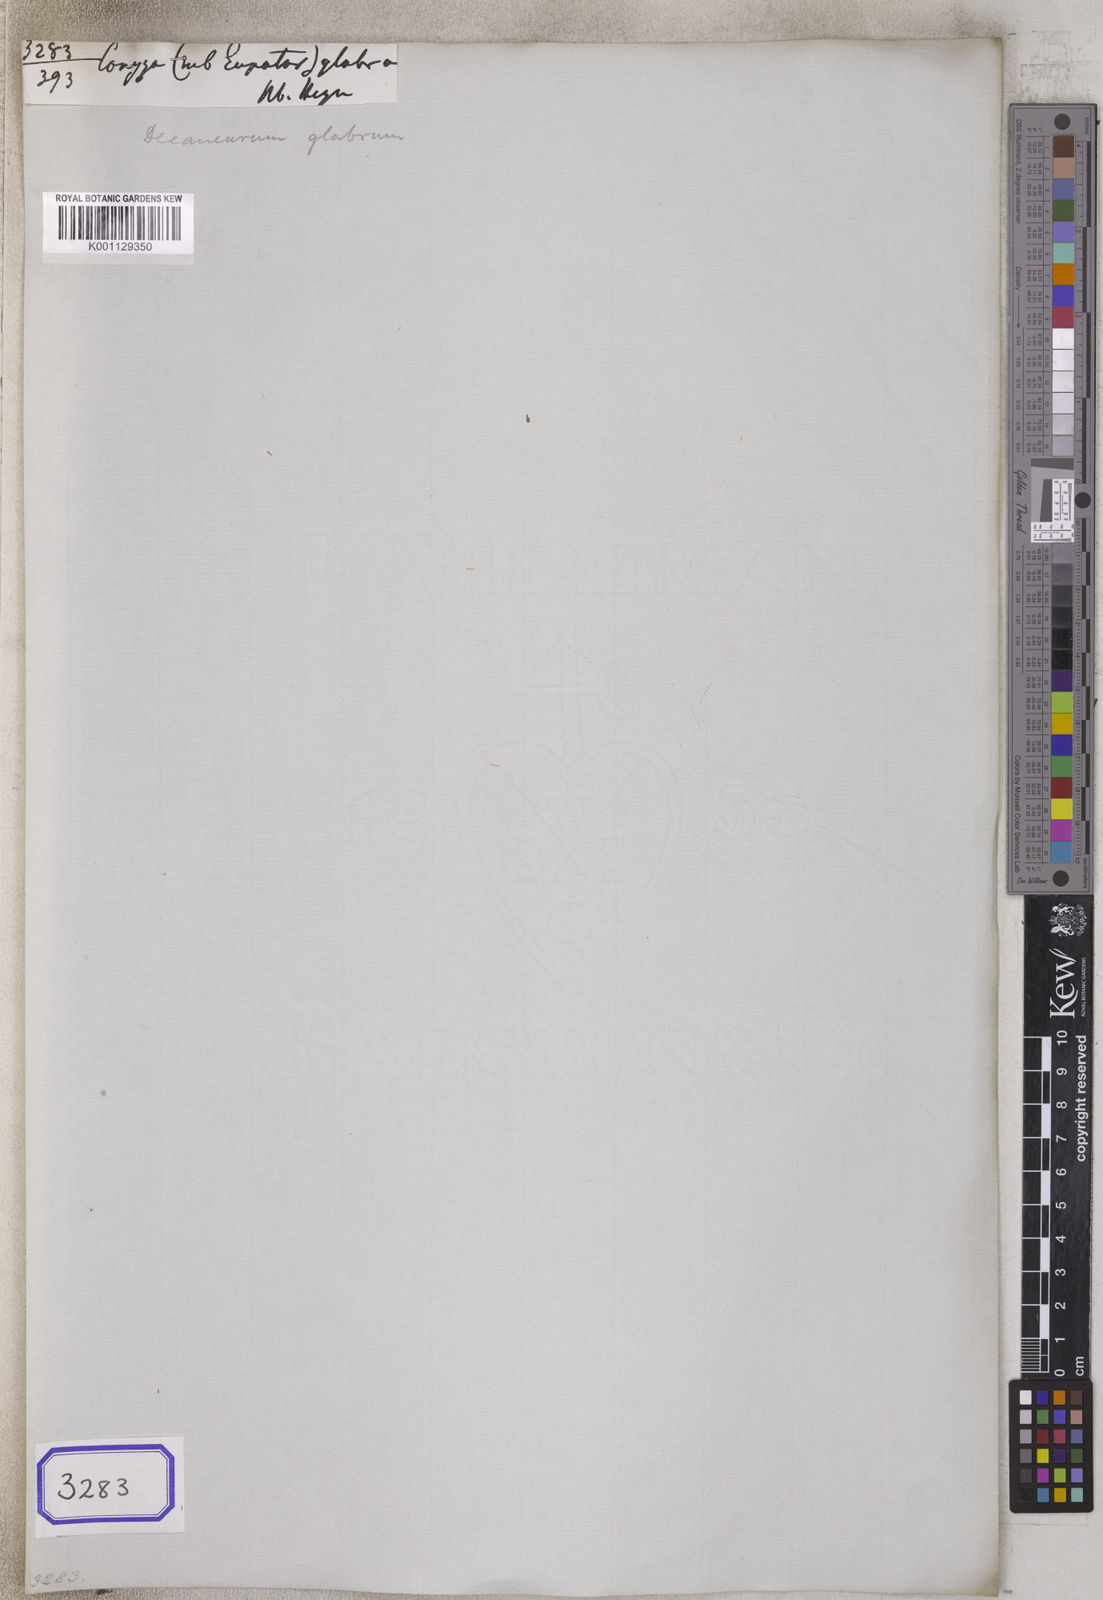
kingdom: Plantae
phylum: Tracheophyta
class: Magnoliopsida
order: Asterales
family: Asteraceae
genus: Lepidaploa
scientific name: Lepidaploa glabra
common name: Santa maria
